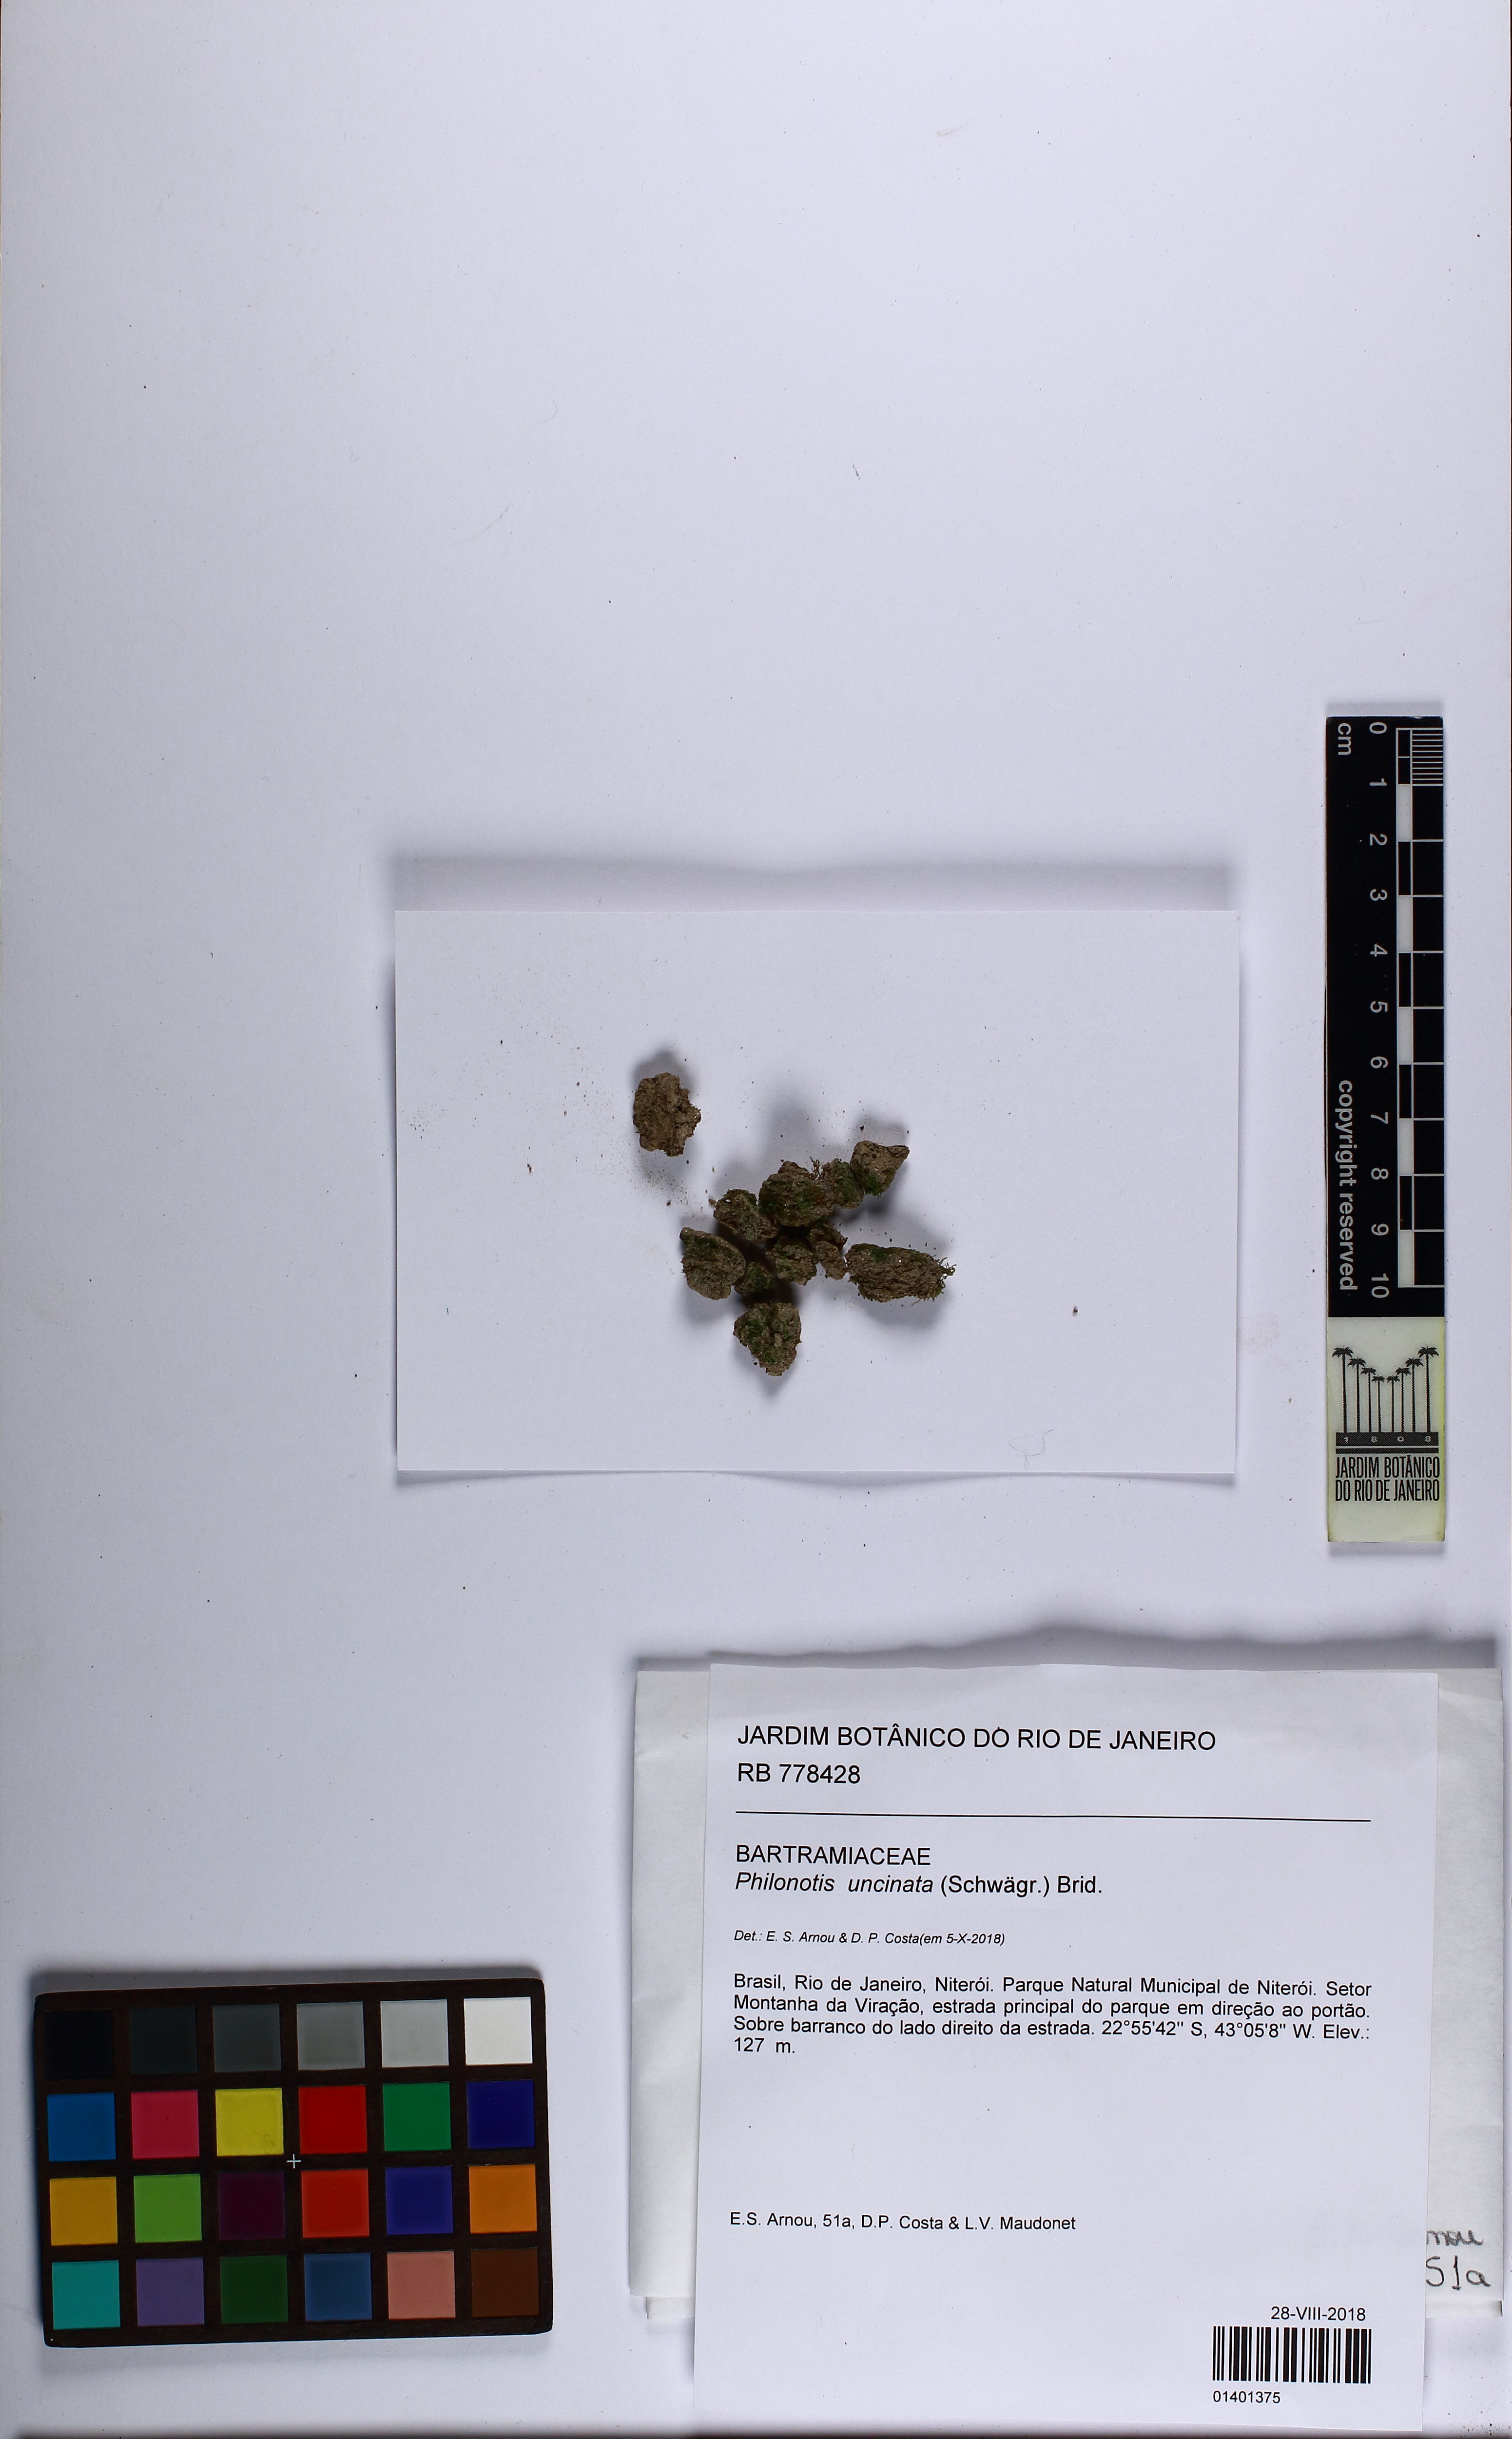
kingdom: Plantae
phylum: Bryophyta
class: Bryopsida
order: Bartramiales
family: Bartramiaceae
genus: Philonotis
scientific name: Philonotis uncinata
